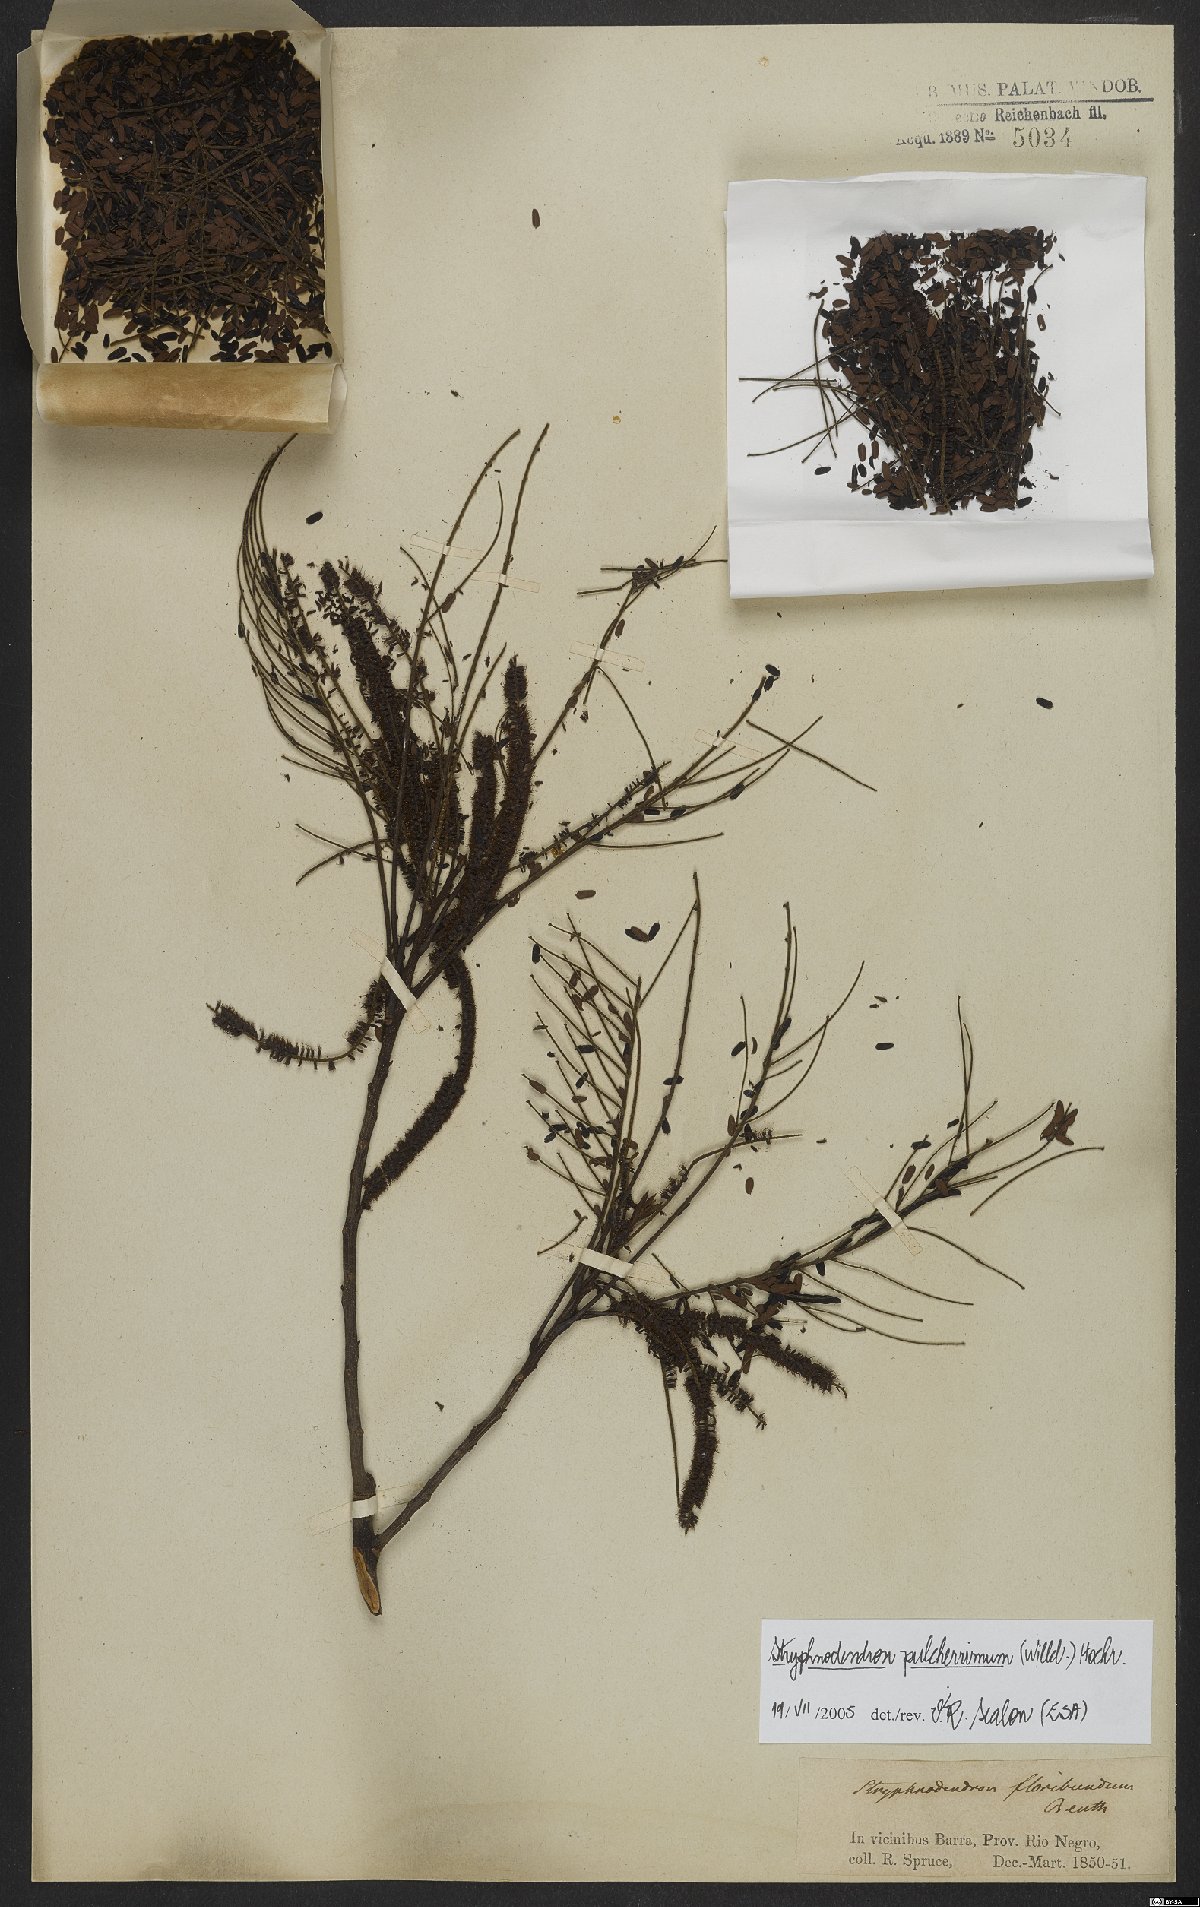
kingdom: Plantae
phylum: Tracheophyta
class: Magnoliopsida
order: Fabales
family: Fabaceae
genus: Stryphnodendron
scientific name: Stryphnodendron pulcherrimum
